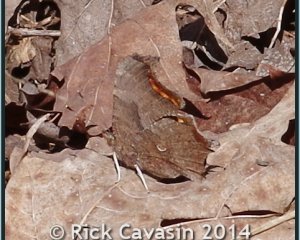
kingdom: Animalia
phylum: Arthropoda
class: Insecta
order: Lepidoptera
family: Nymphalidae
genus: Polygonia
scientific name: Polygonia comma
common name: Eastern Comma
